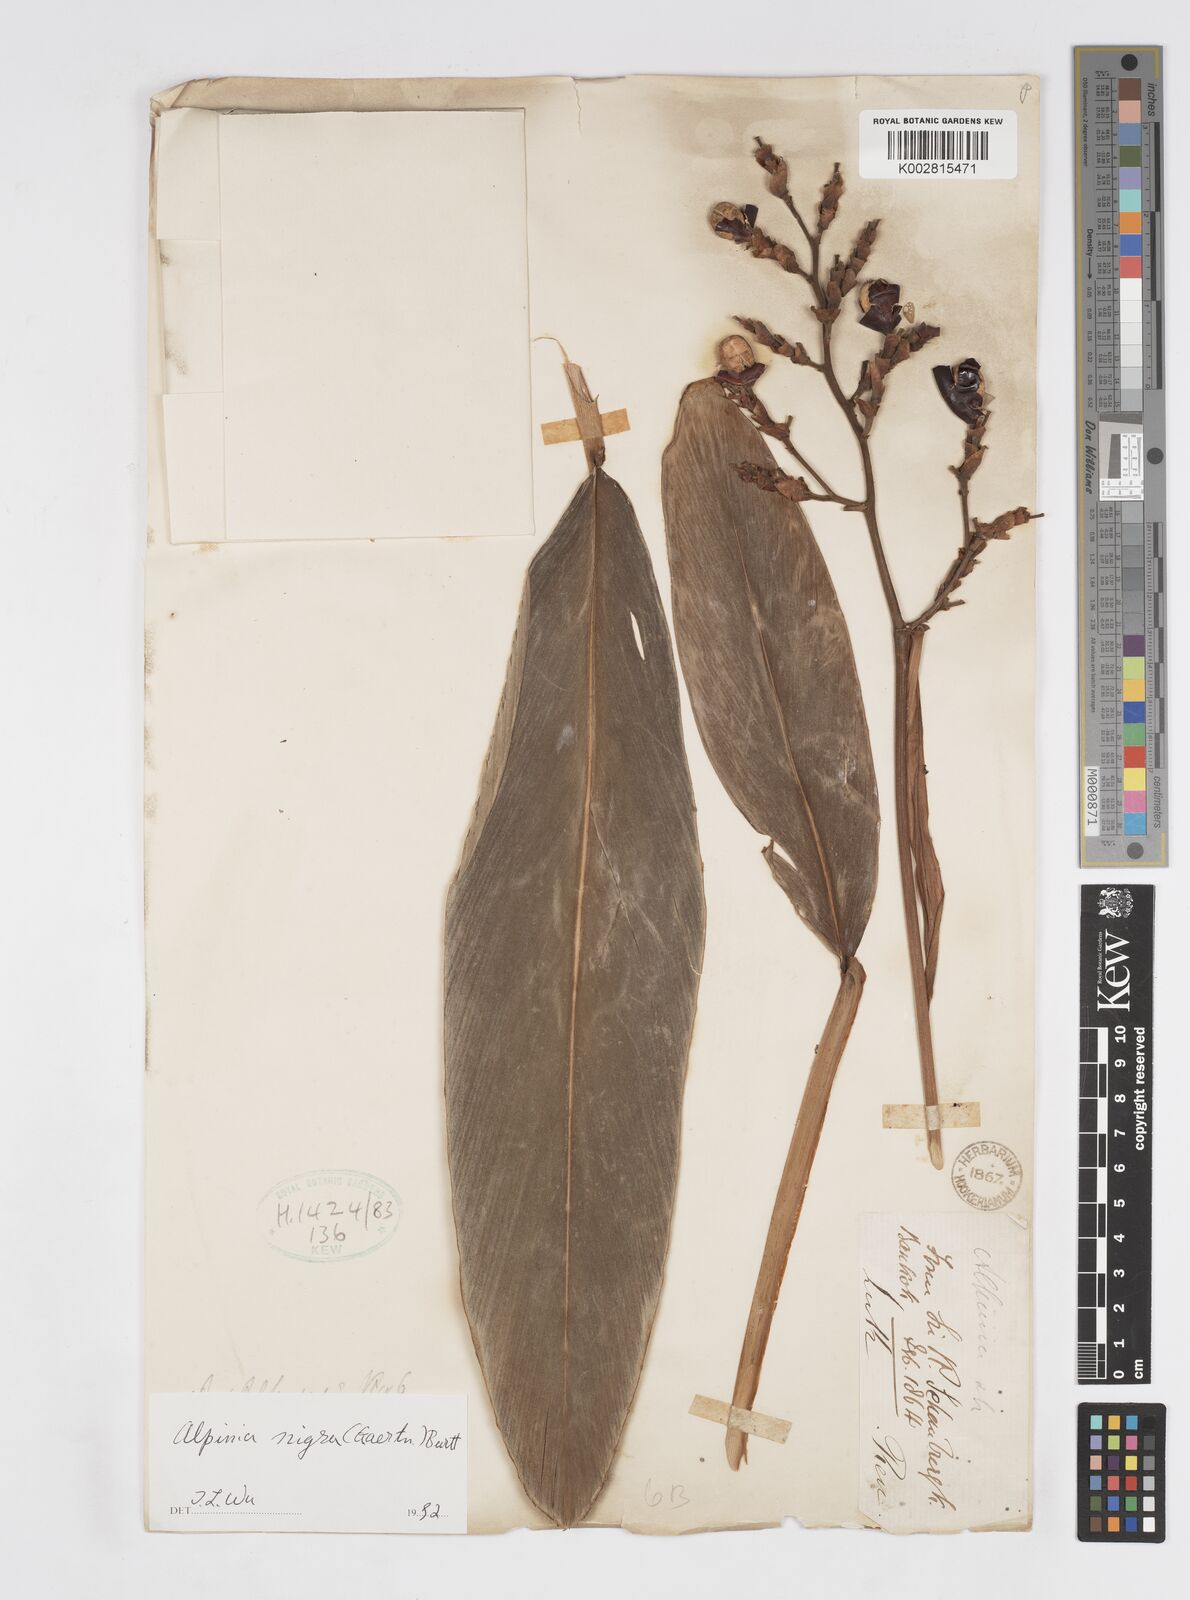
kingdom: Plantae
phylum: Tracheophyta
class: Liliopsida
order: Zingiberales
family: Zingiberaceae
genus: Alpinia
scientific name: Alpinia nigra
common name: Black fruited galanga
